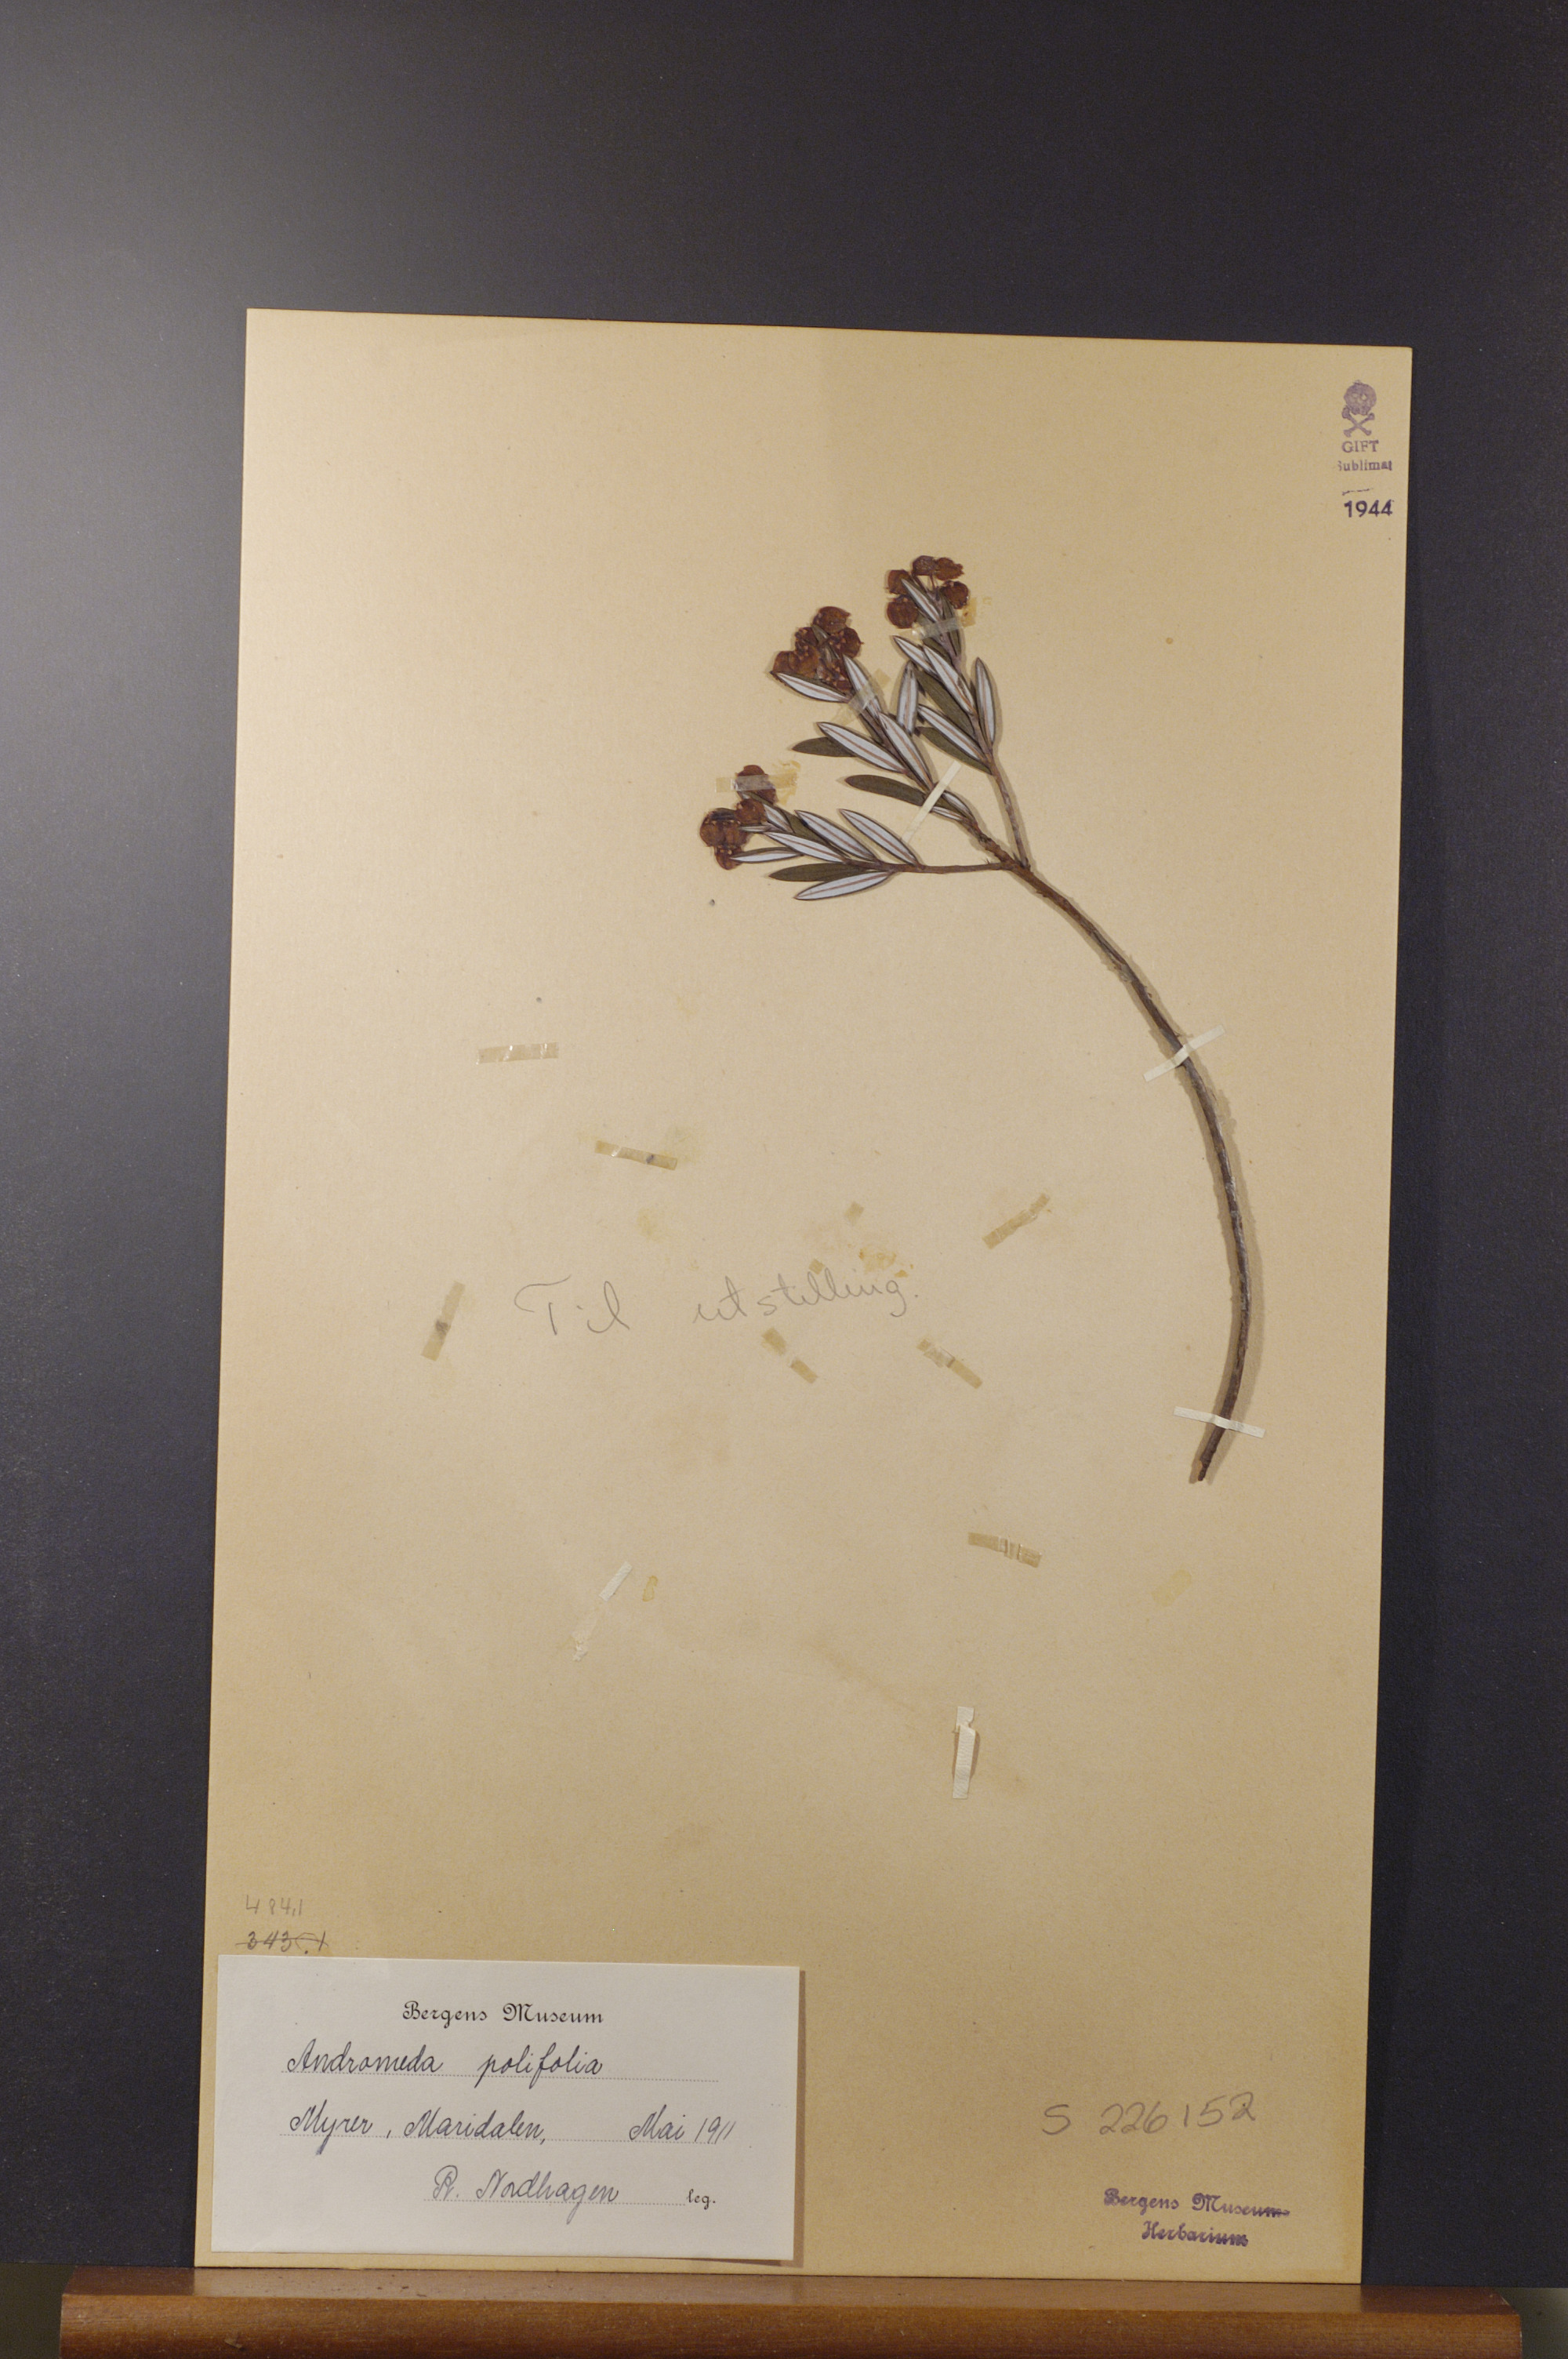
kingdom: Plantae
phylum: Tracheophyta
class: Magnoliopsida
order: Ericales
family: Ericaceae
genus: Andromeda
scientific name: Andromeda polifolia
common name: Bog-rosemary
